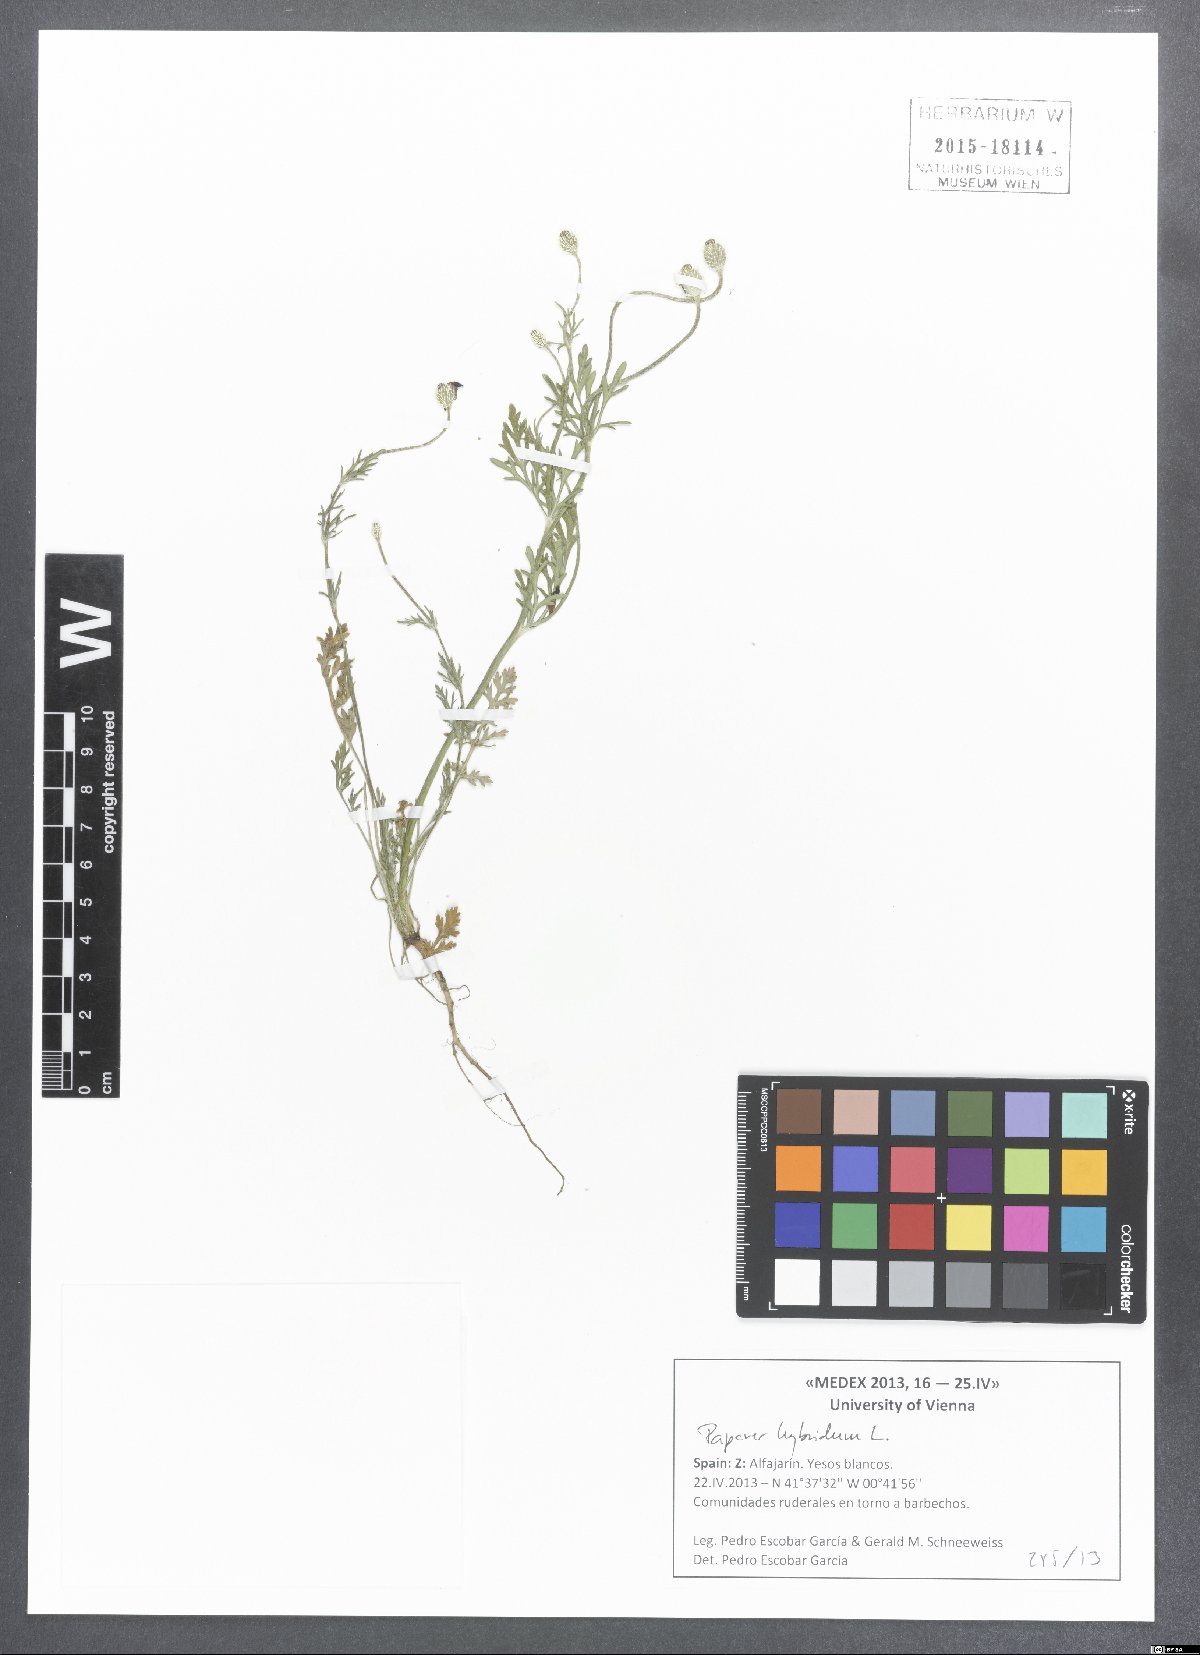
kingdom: Plantae
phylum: Tracheophyta
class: Magnoliopsida
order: Ranunculales
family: Papaveraceae
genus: Roemeria
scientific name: Roemeria hispida
